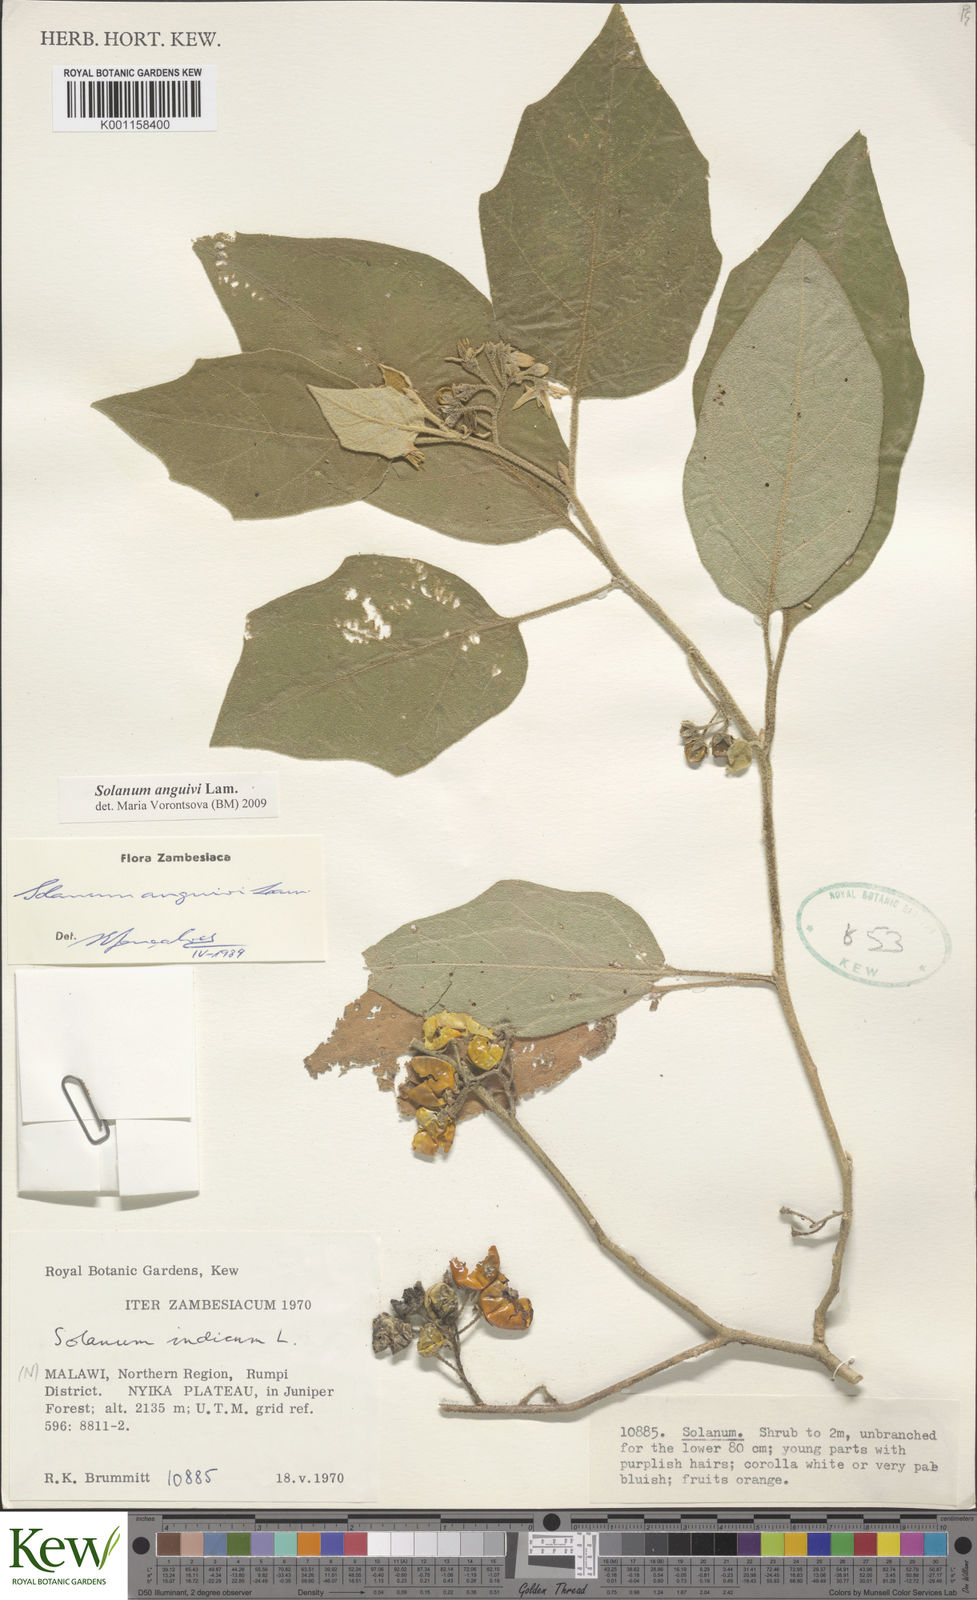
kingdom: Plantae
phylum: Tracheophyta
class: Magnoliopsida
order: Solanales
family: Solanaceae
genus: Solanum
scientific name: Solanum anguivi
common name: Forest bitterberry
